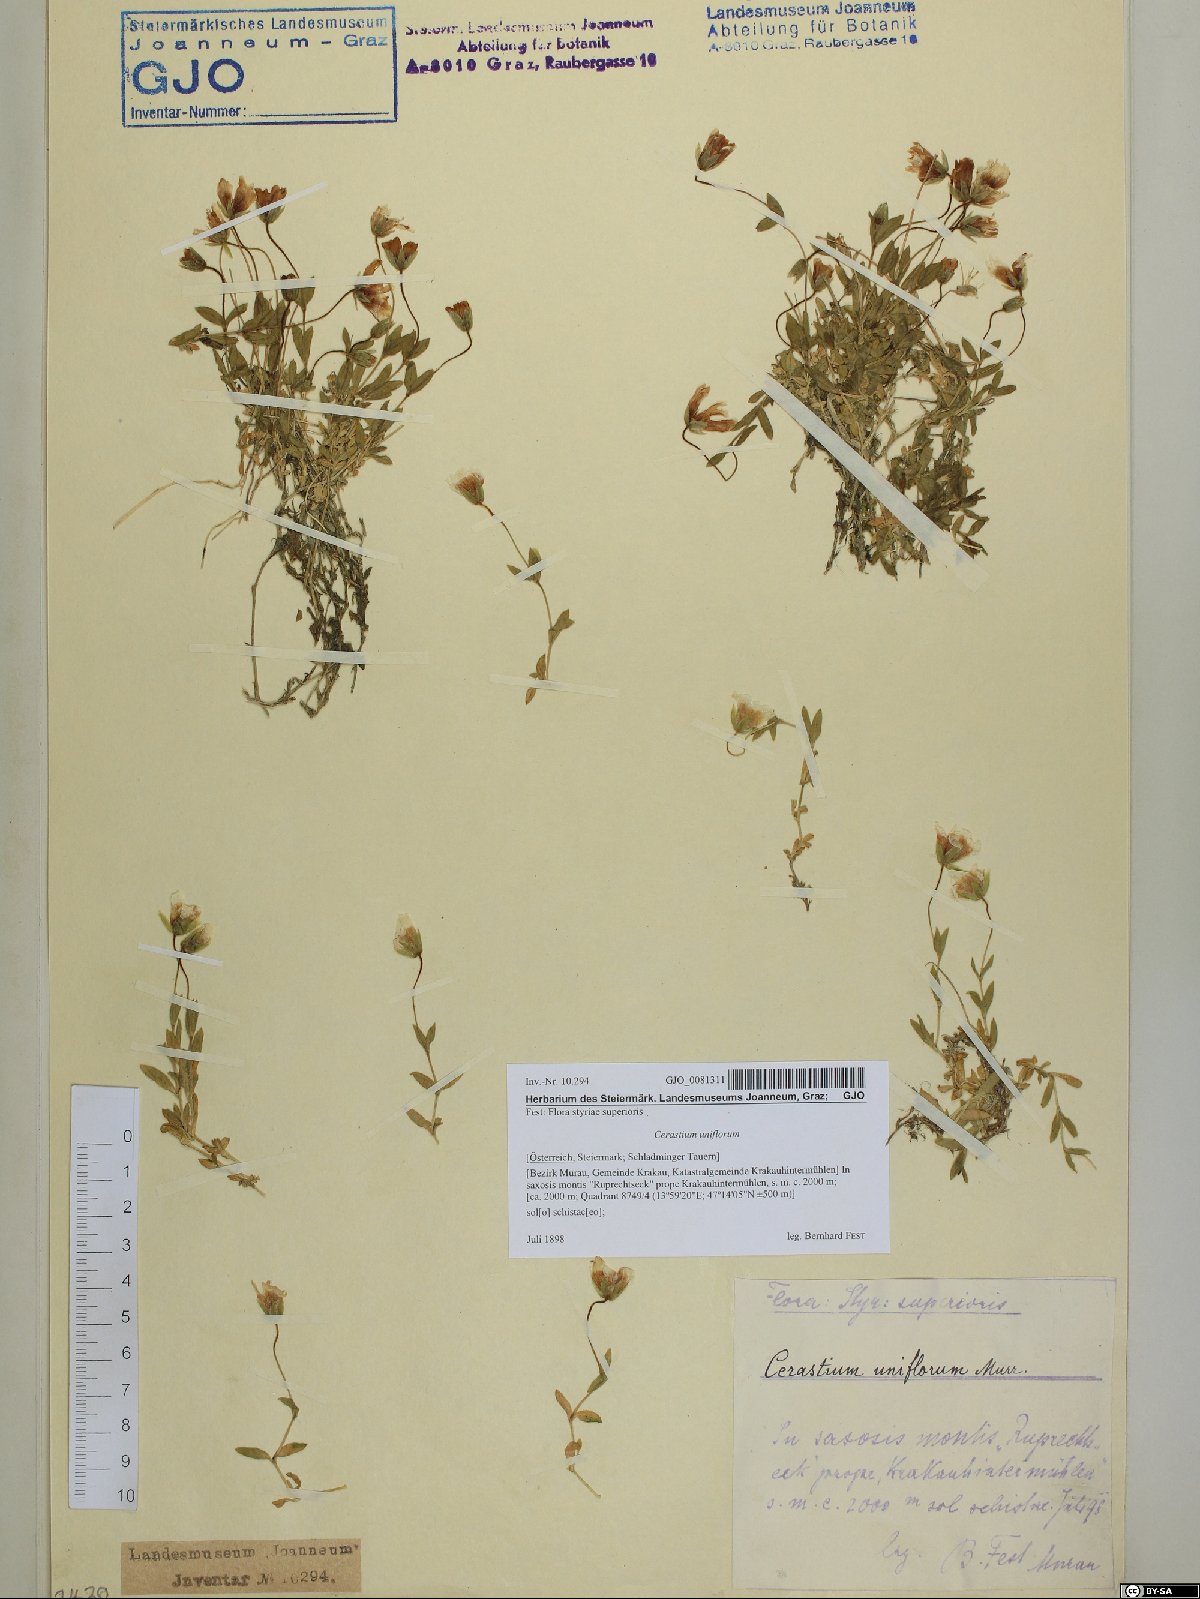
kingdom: Plantae
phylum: Tracheophyta
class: Magnoliopsida
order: Caryophyllales
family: Caryophyllaceae
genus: Cerastium
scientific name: Cerastium uniflorum
